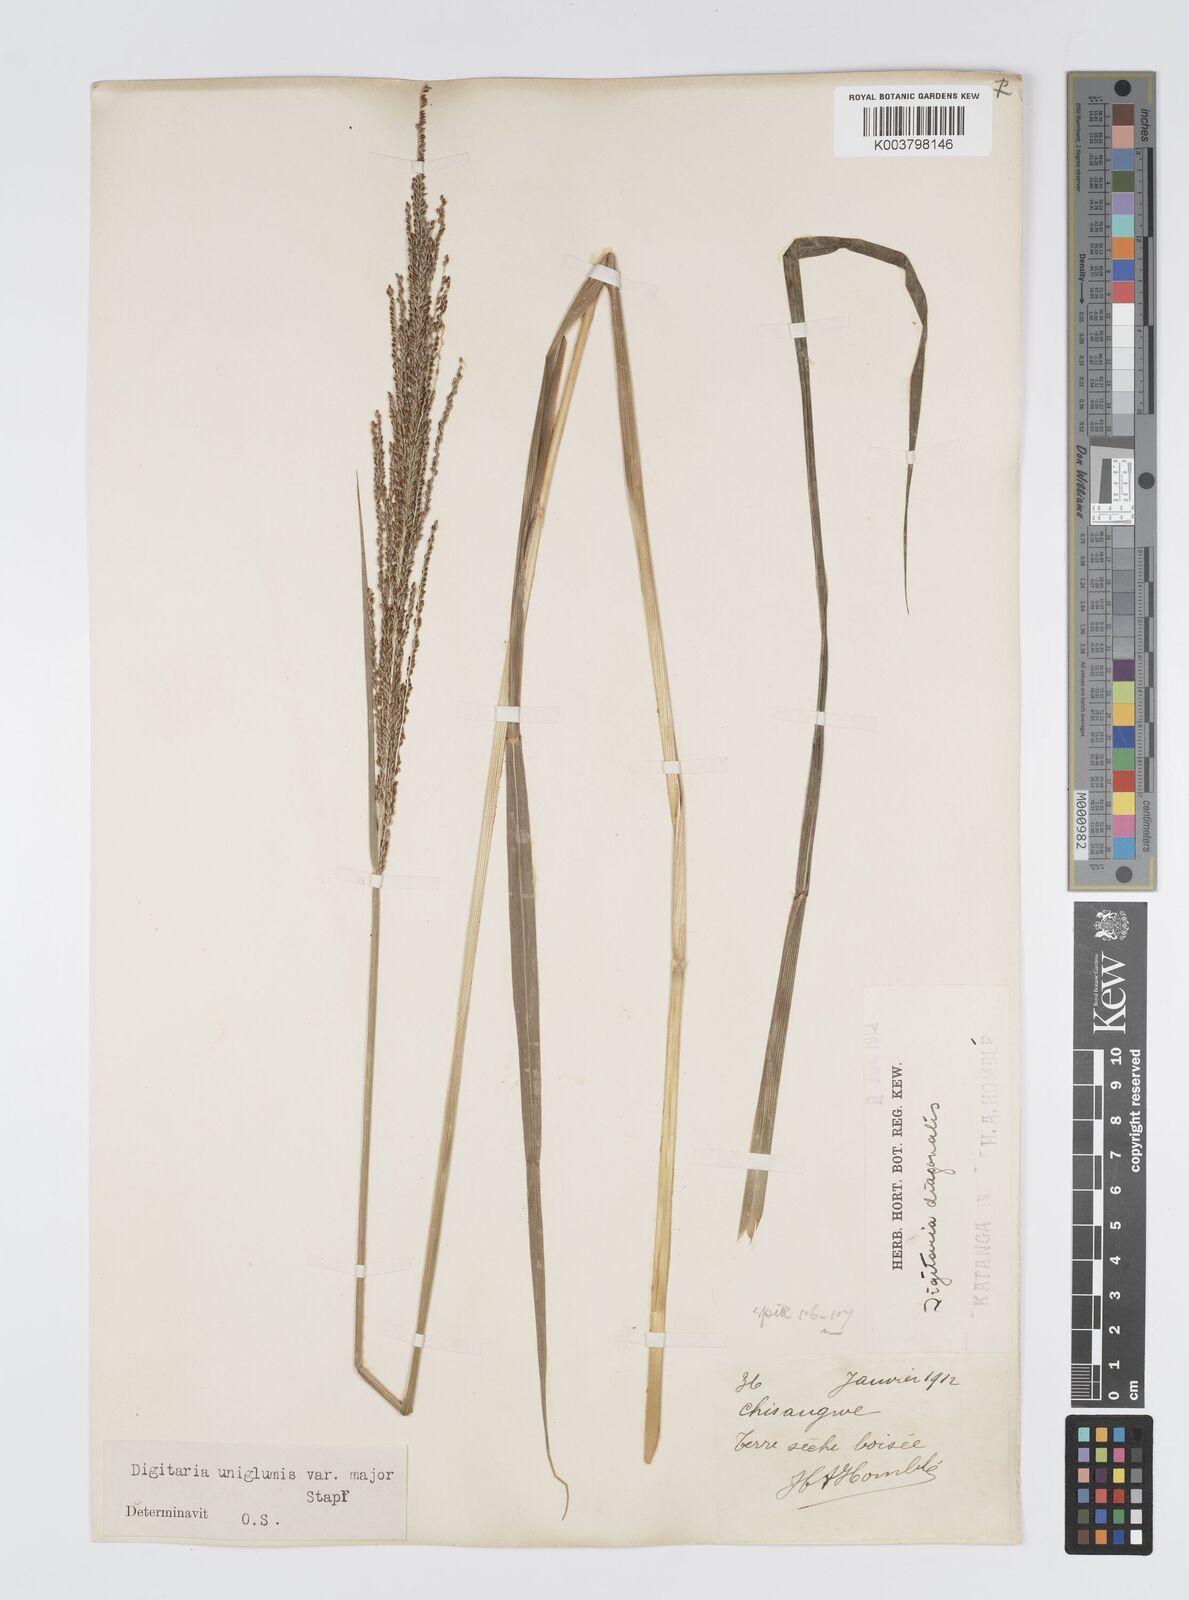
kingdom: Plantae
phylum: Tracheophyta
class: Liliopsida
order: Poales
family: Poaceae
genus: Digitaria
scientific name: Digitaria diagonalis
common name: Brown-seed finger grass
